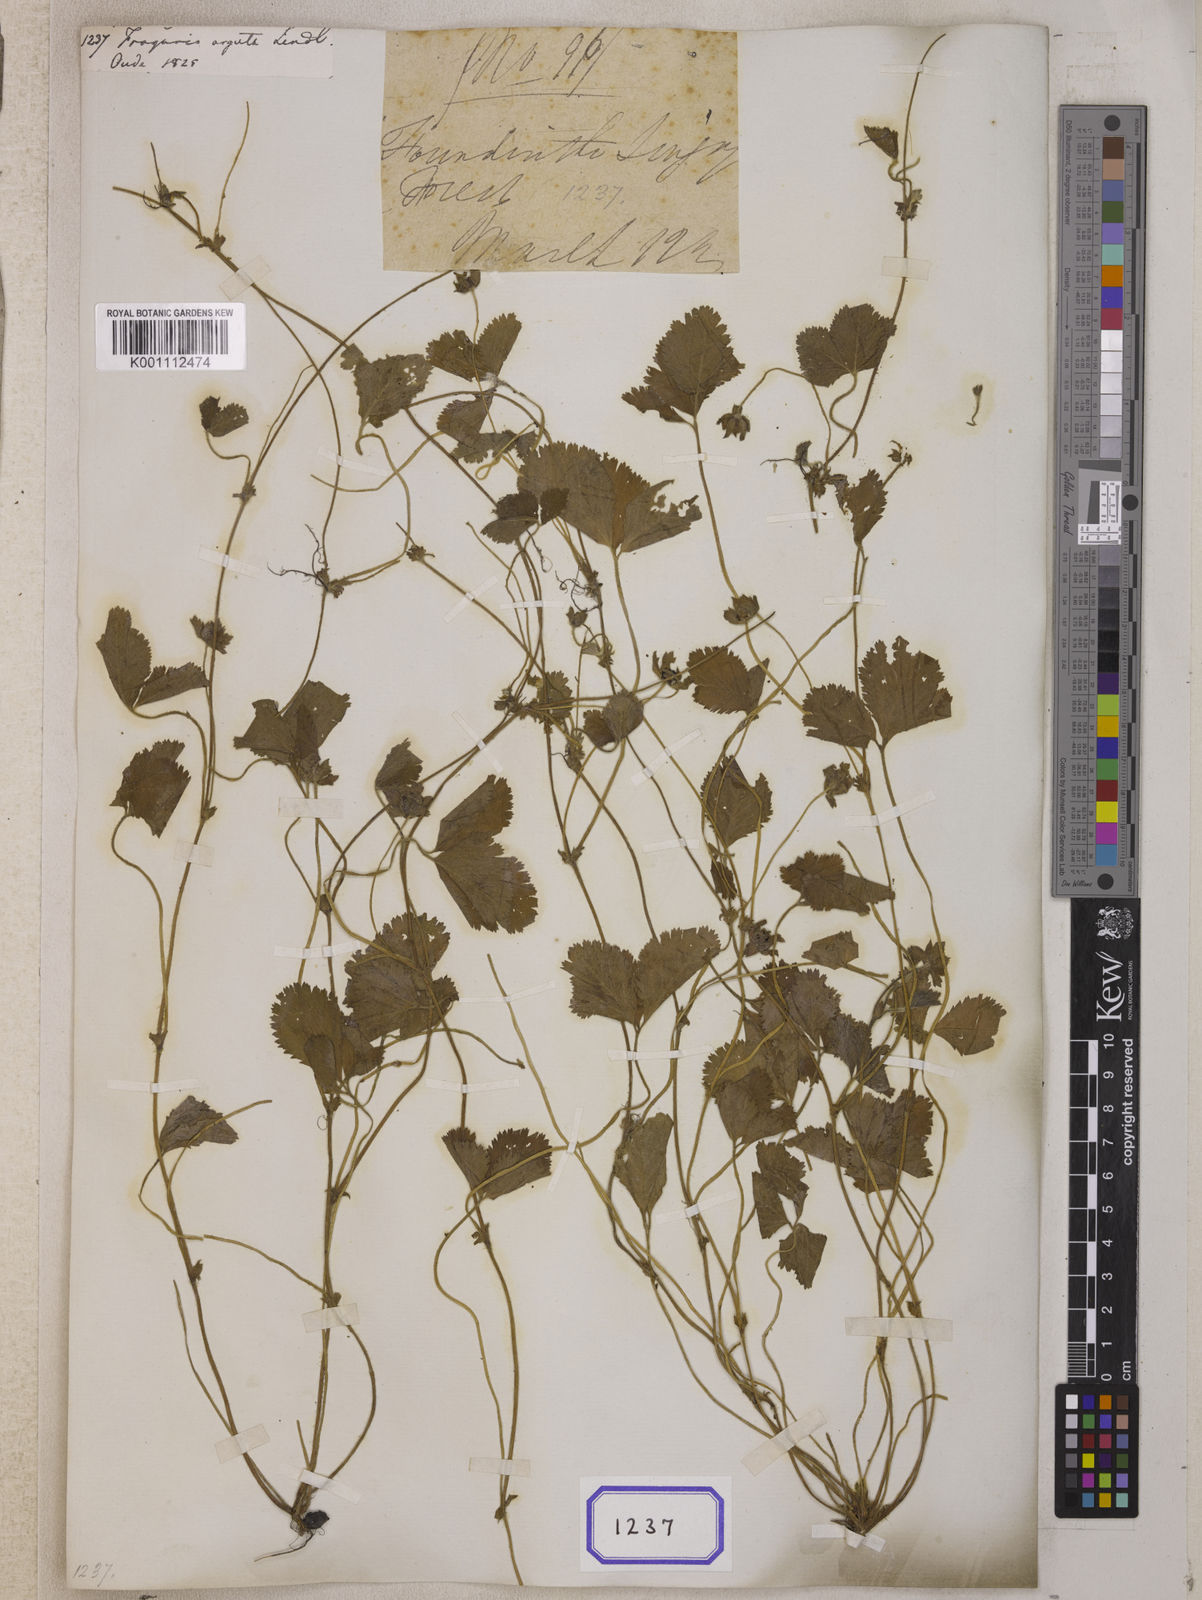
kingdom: Plantae
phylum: Tracheophyta
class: Magnoliopsida
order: Rosales
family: Rosaceae
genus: Fragaria
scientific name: Fragaria
